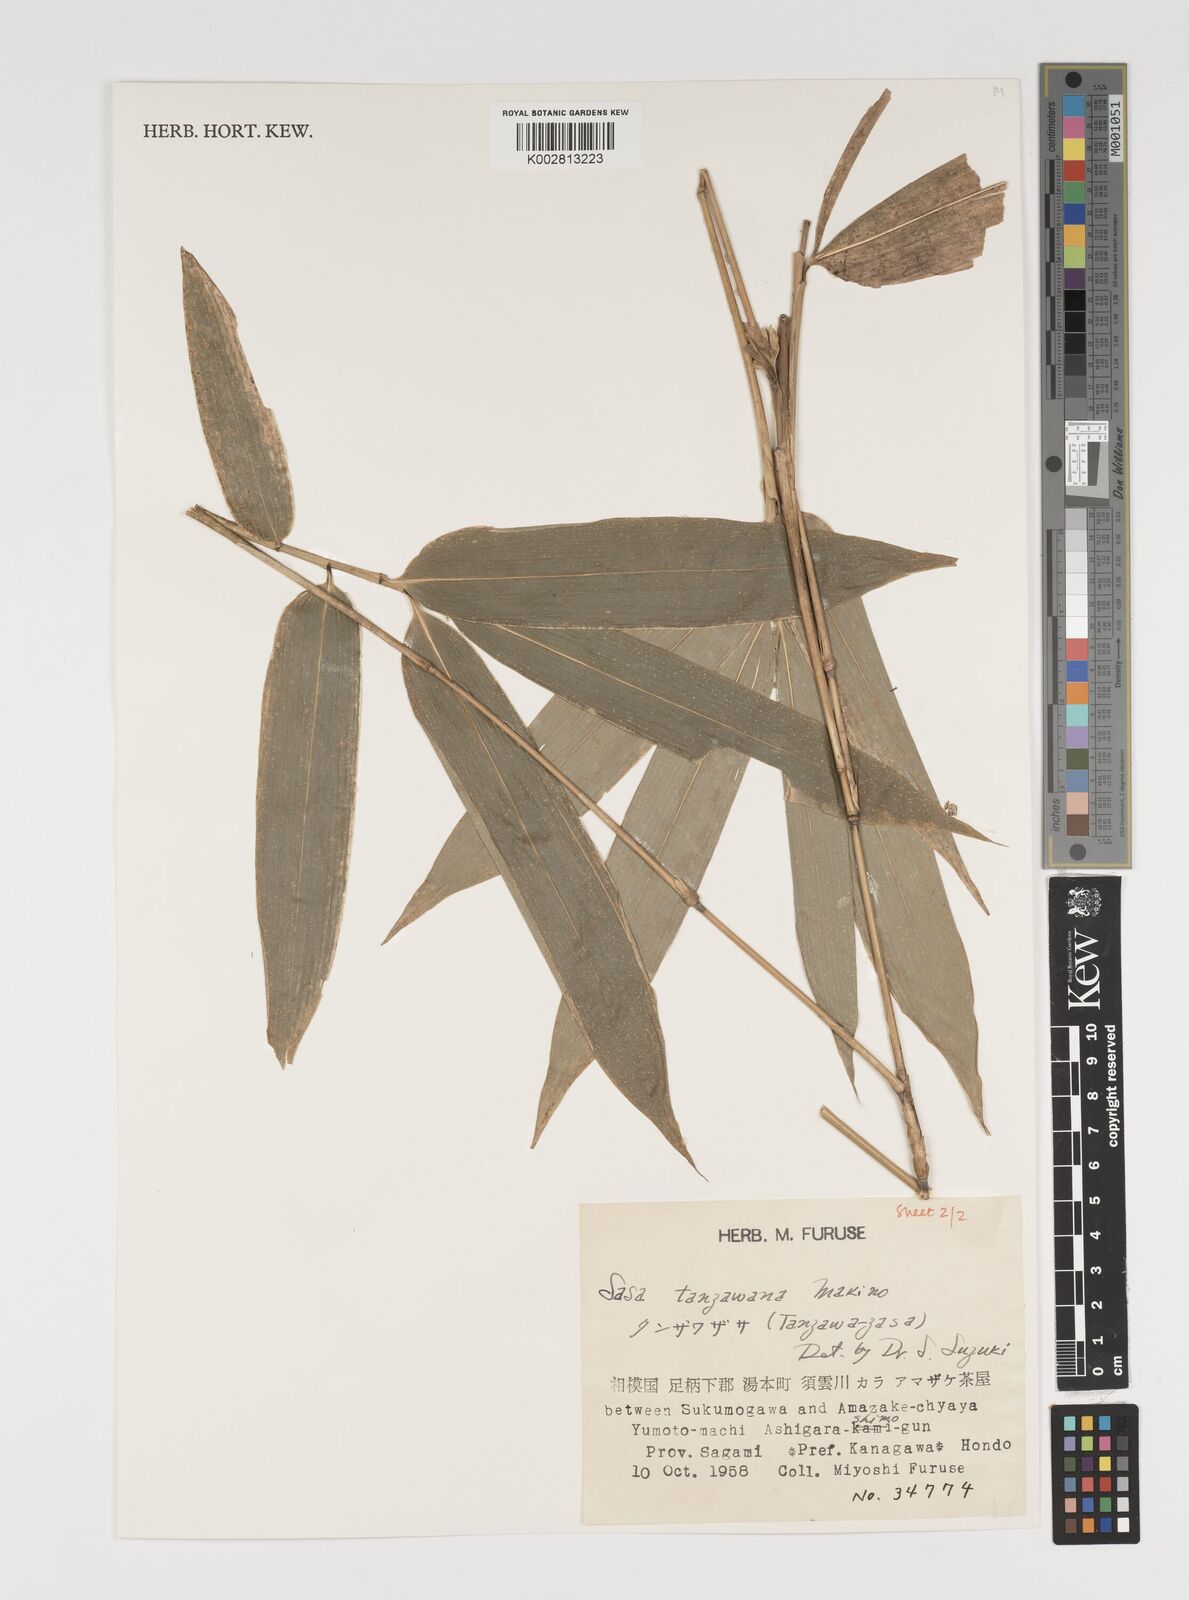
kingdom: Plantae
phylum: Tracheophyta
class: Liliopsida
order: Poales
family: Poaceae
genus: Sasa
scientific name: Sasa takizawana
